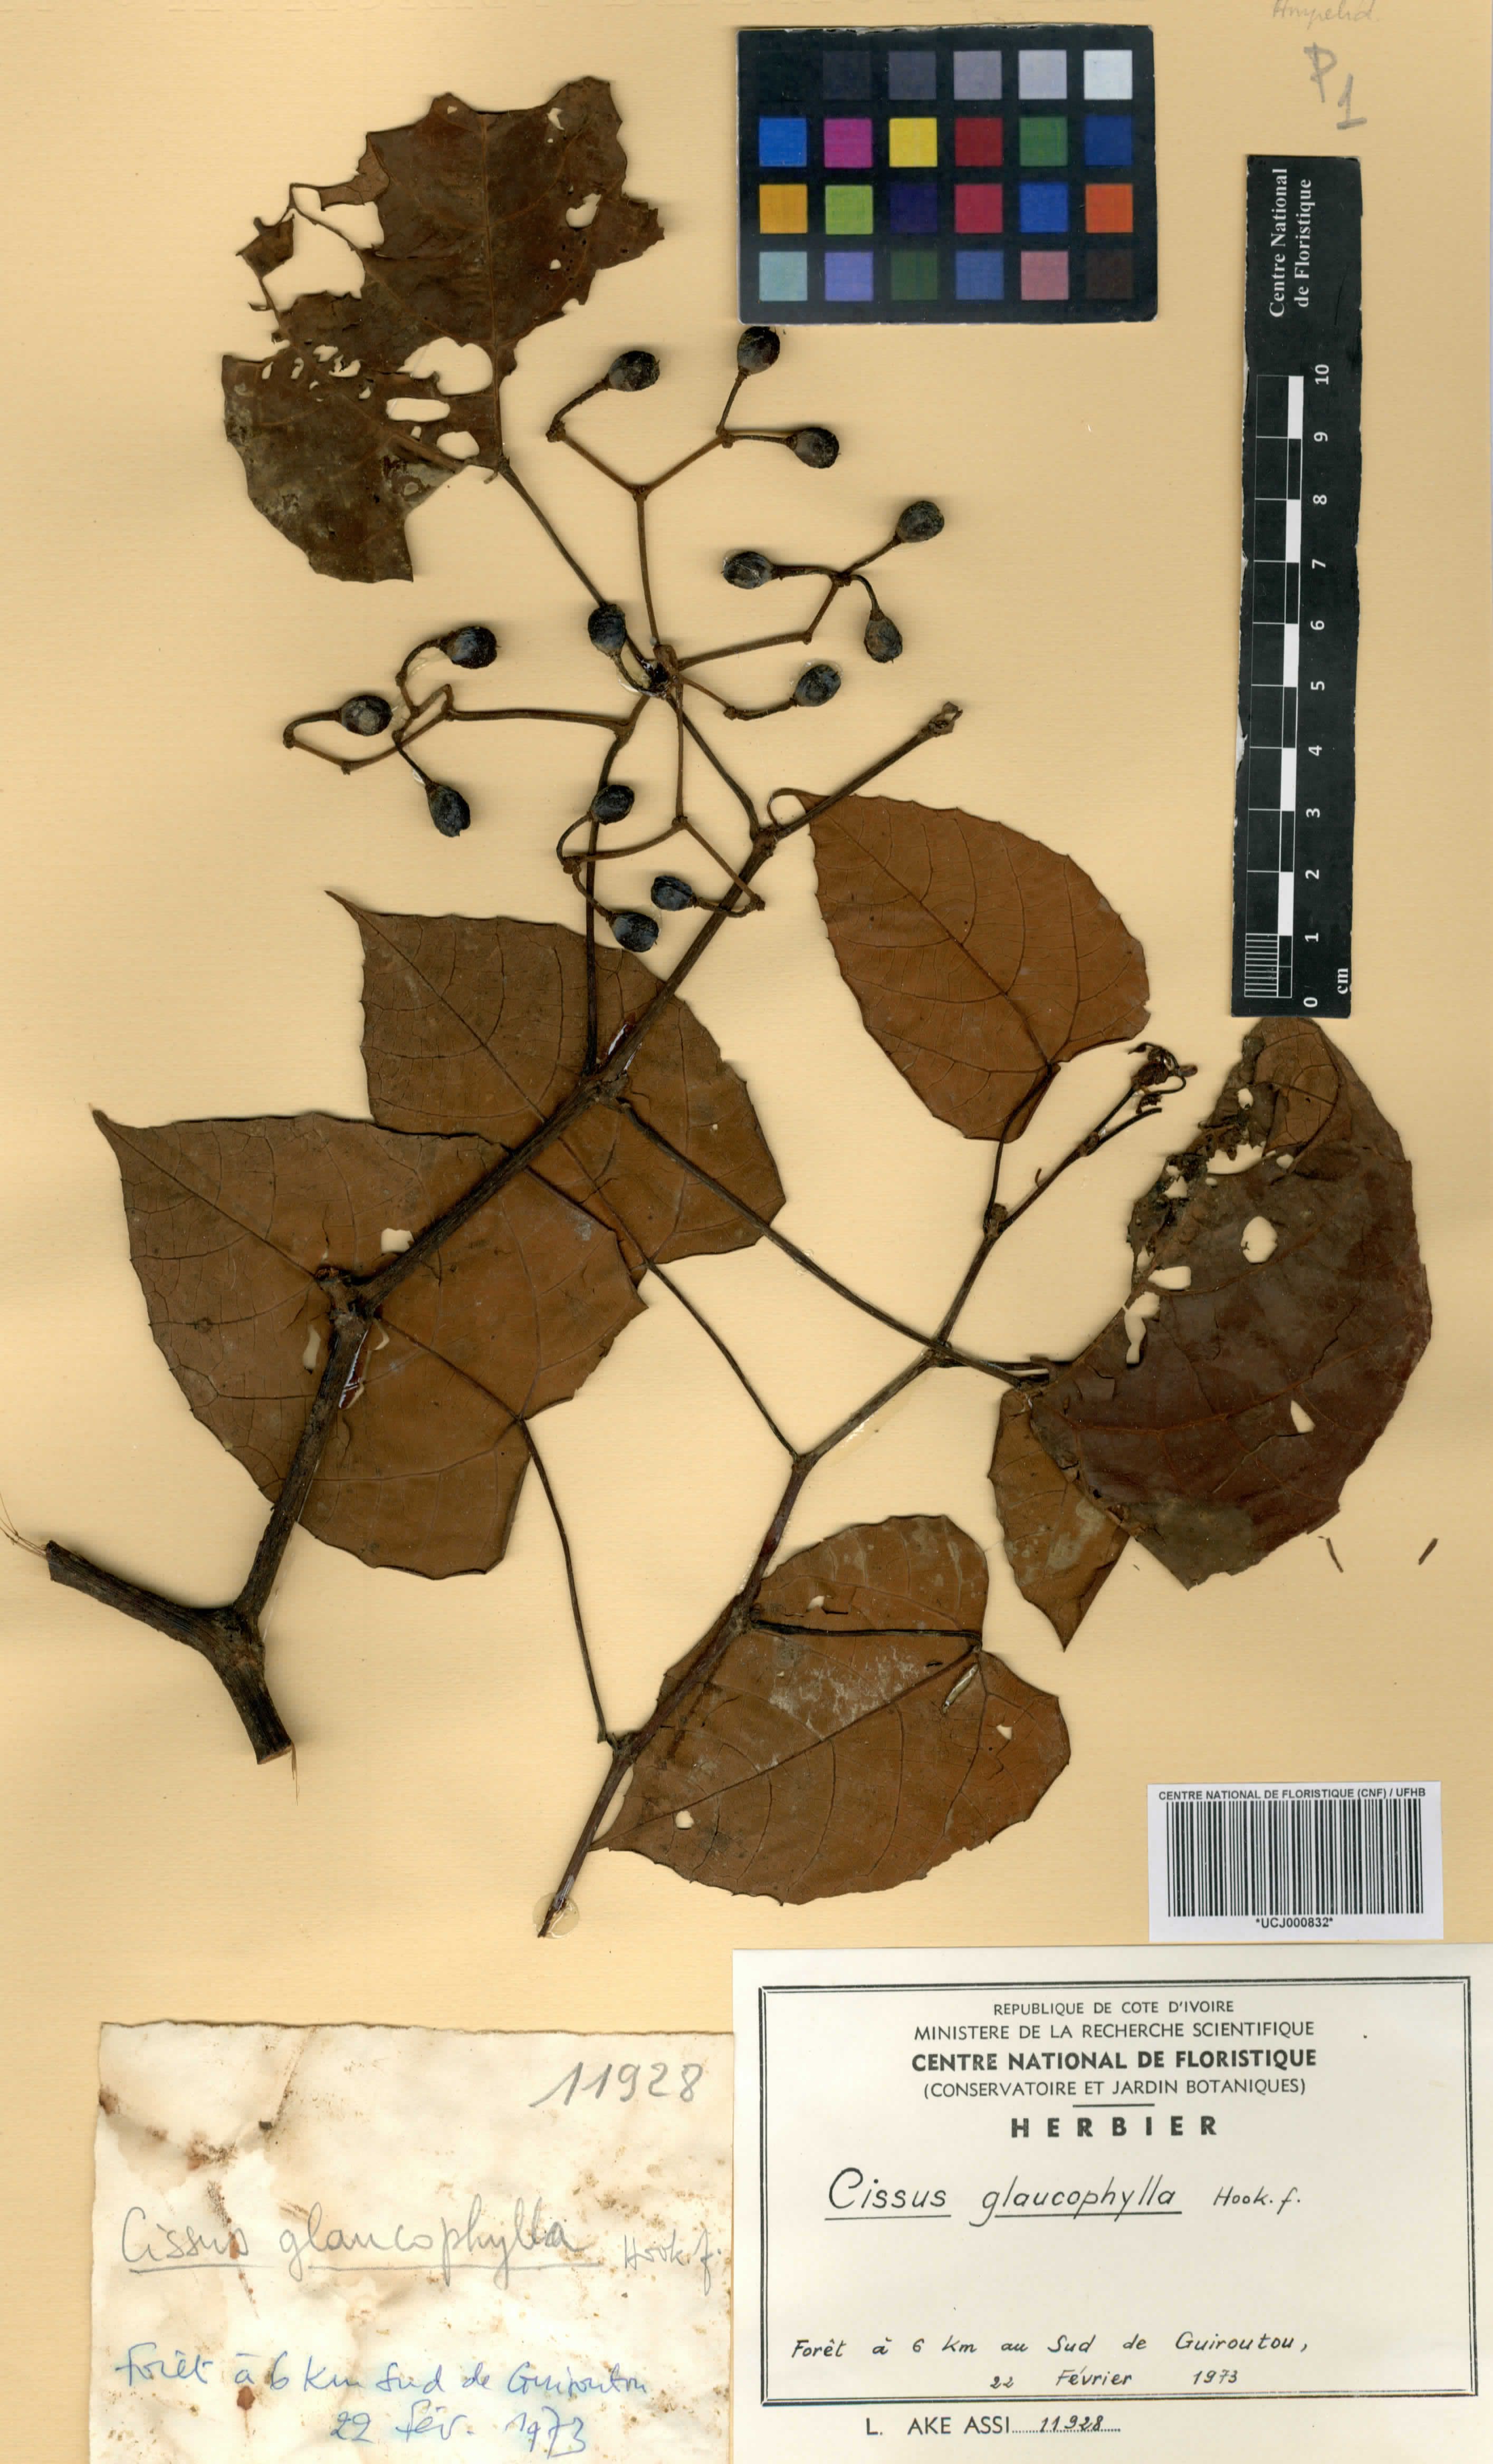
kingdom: Plantae
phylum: Tracheophyta
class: Magnoliopsida
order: Vitales
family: Vitaceae
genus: Cissus
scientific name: Cissus glaucophylla
